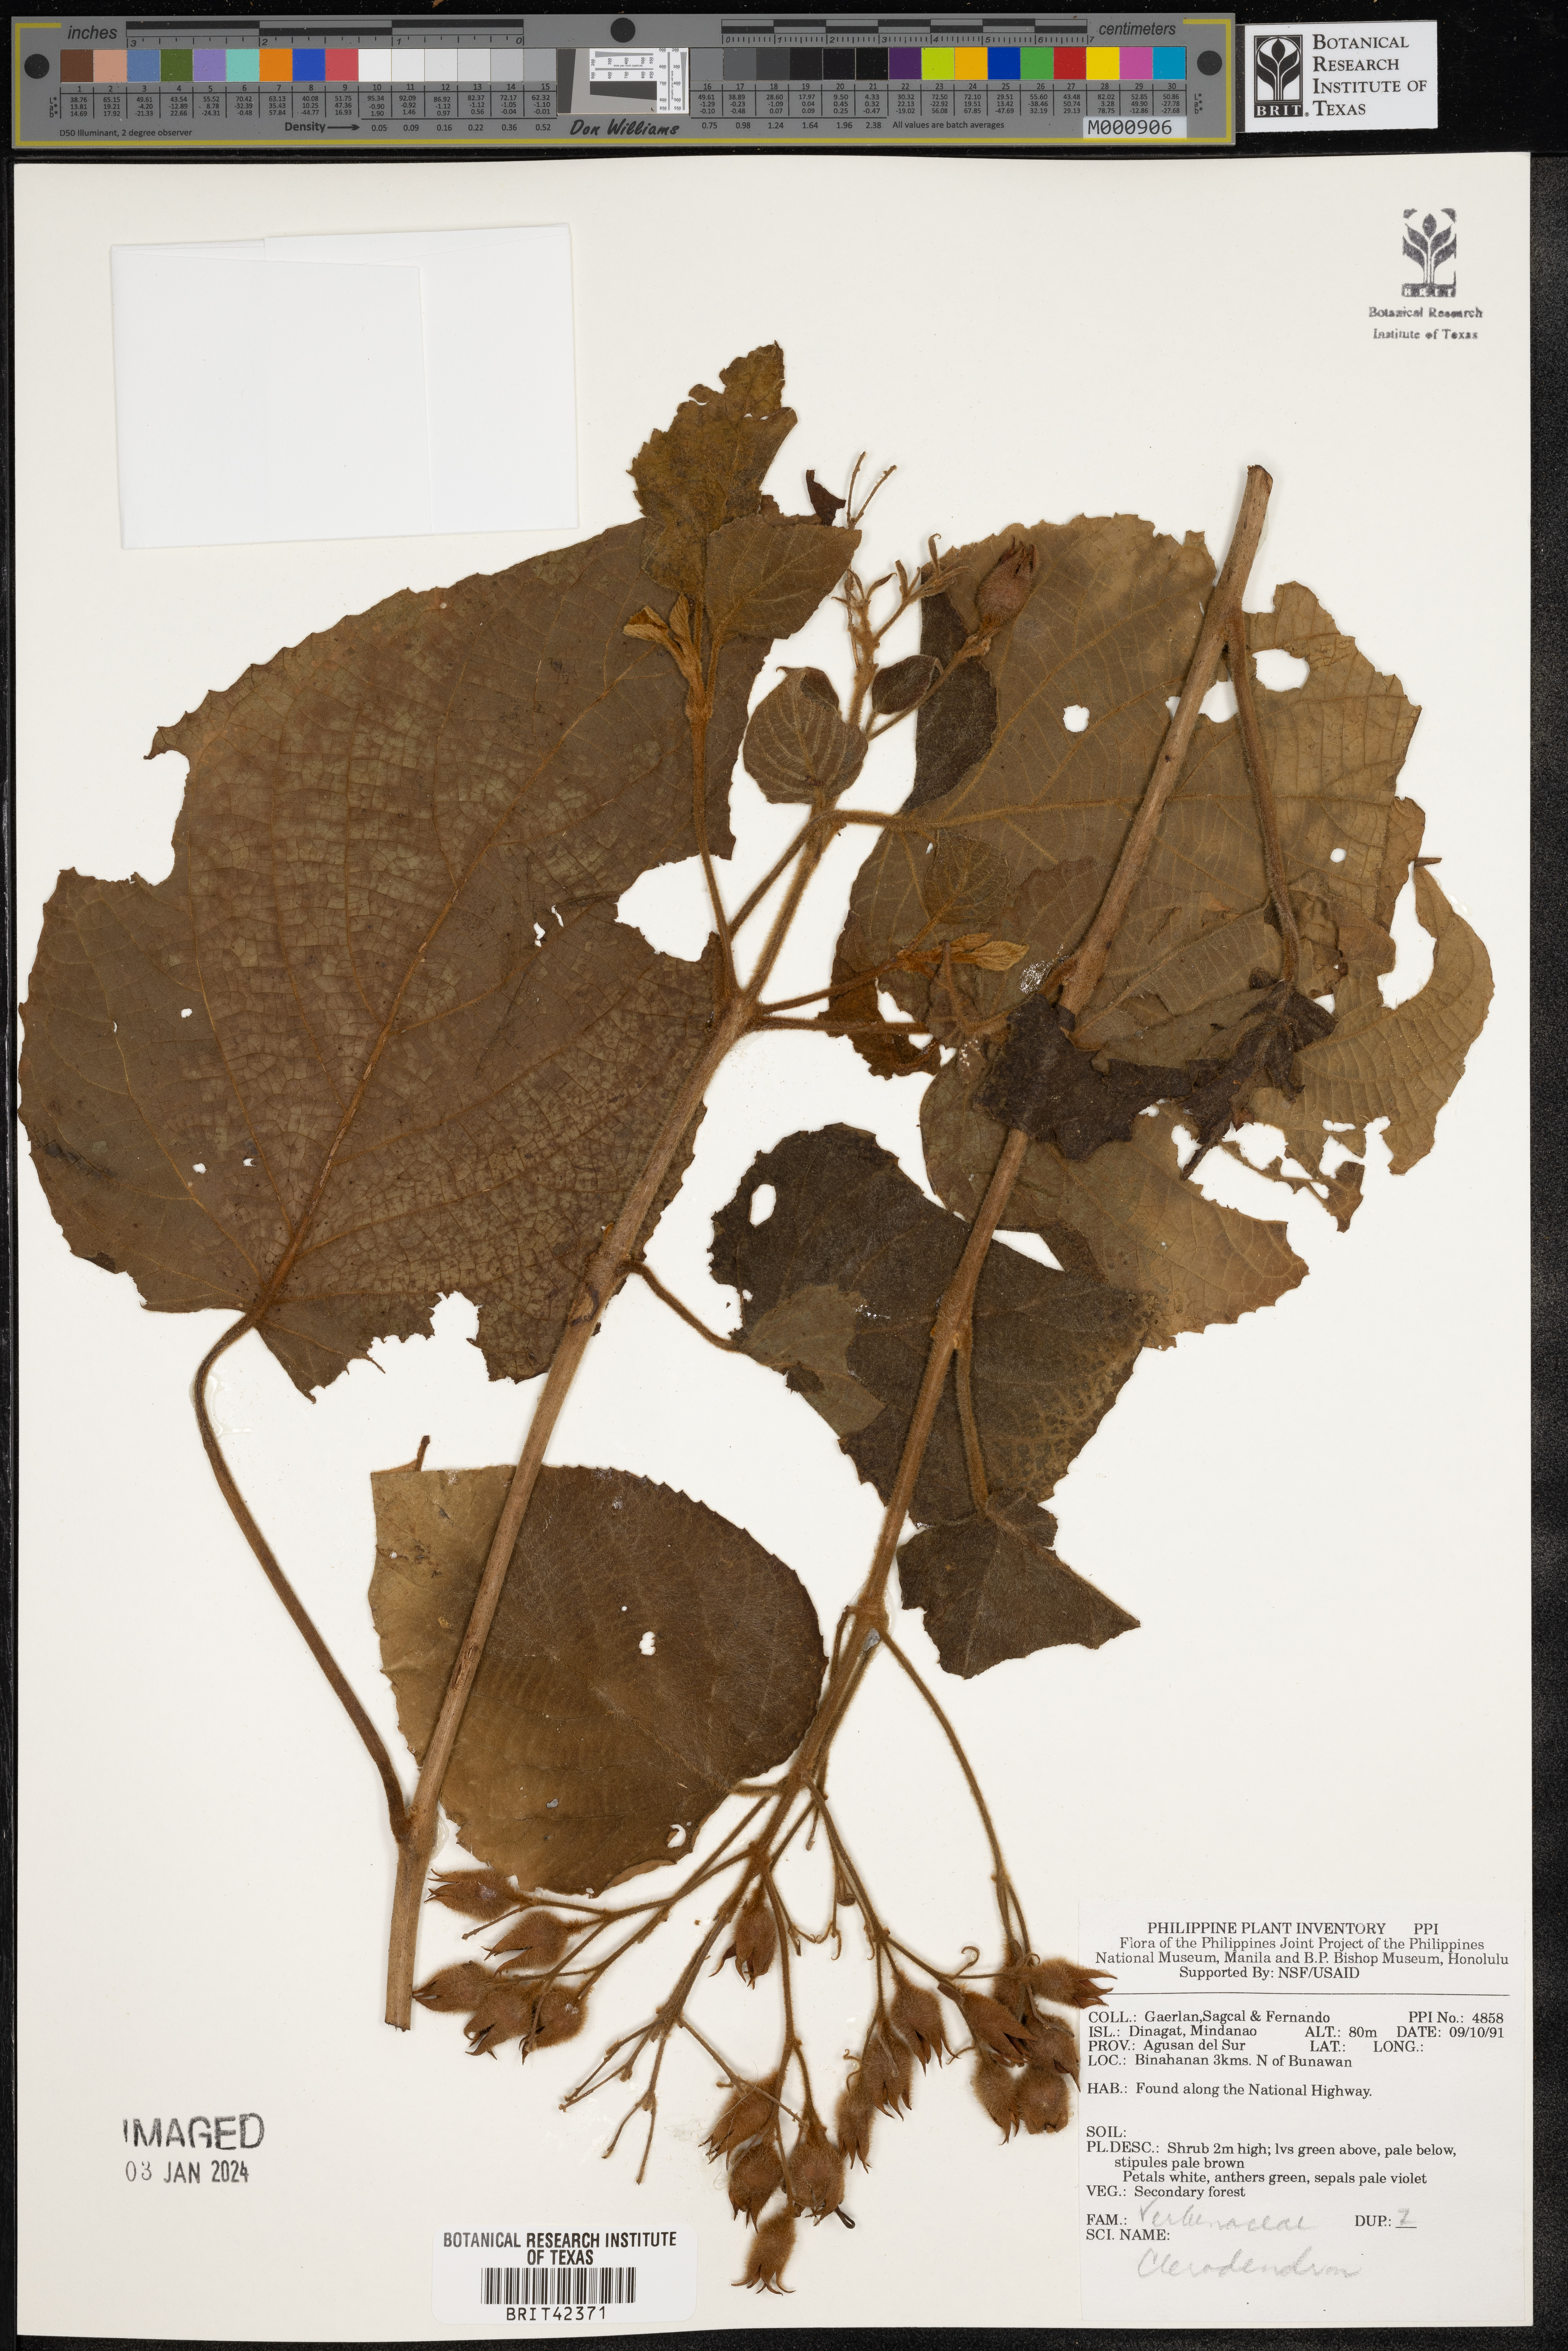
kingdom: Plantae
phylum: Tracheophyta
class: Magnoliopsida
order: Lamiales
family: Lamiaceae
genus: Clerodendrum
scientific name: Clerodendrum
